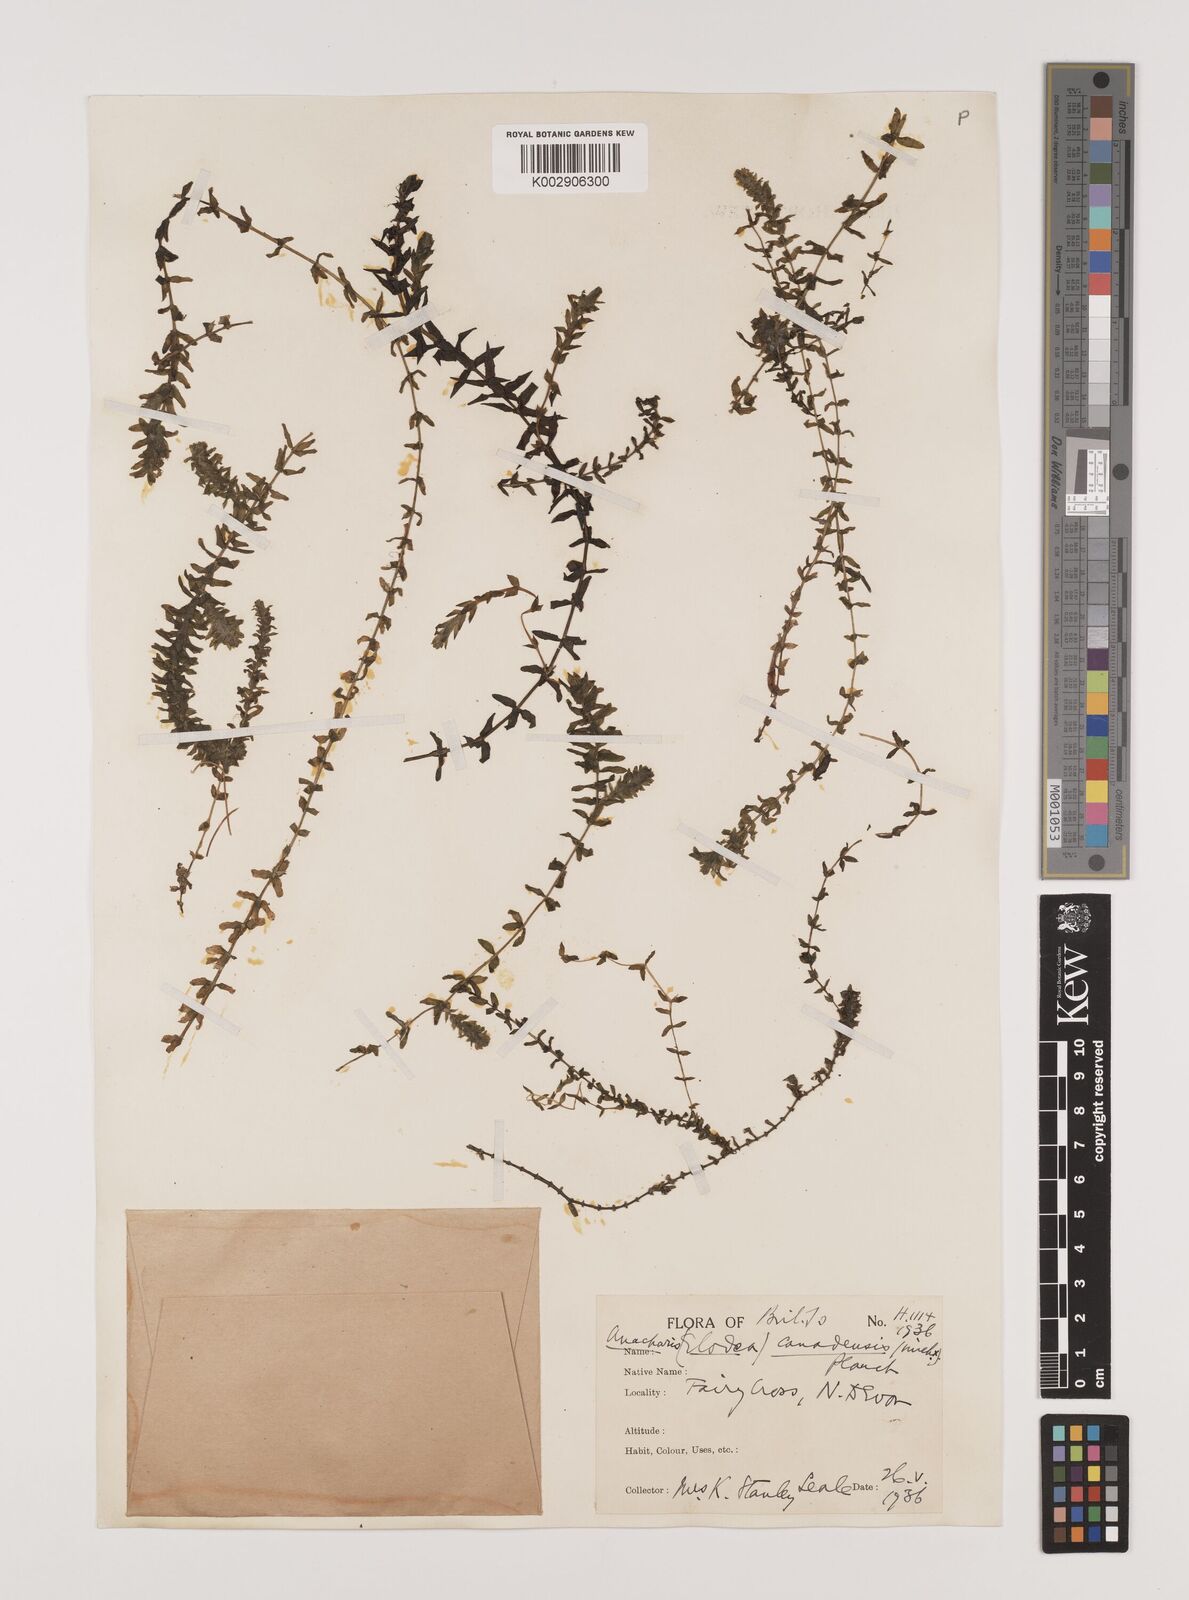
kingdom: Plantae
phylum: Tracheophyta
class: Liliopsida
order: Alismatales
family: Hydrocharitaceae
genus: Elodea
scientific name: Elodea canadensis
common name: Canadian waterweed
